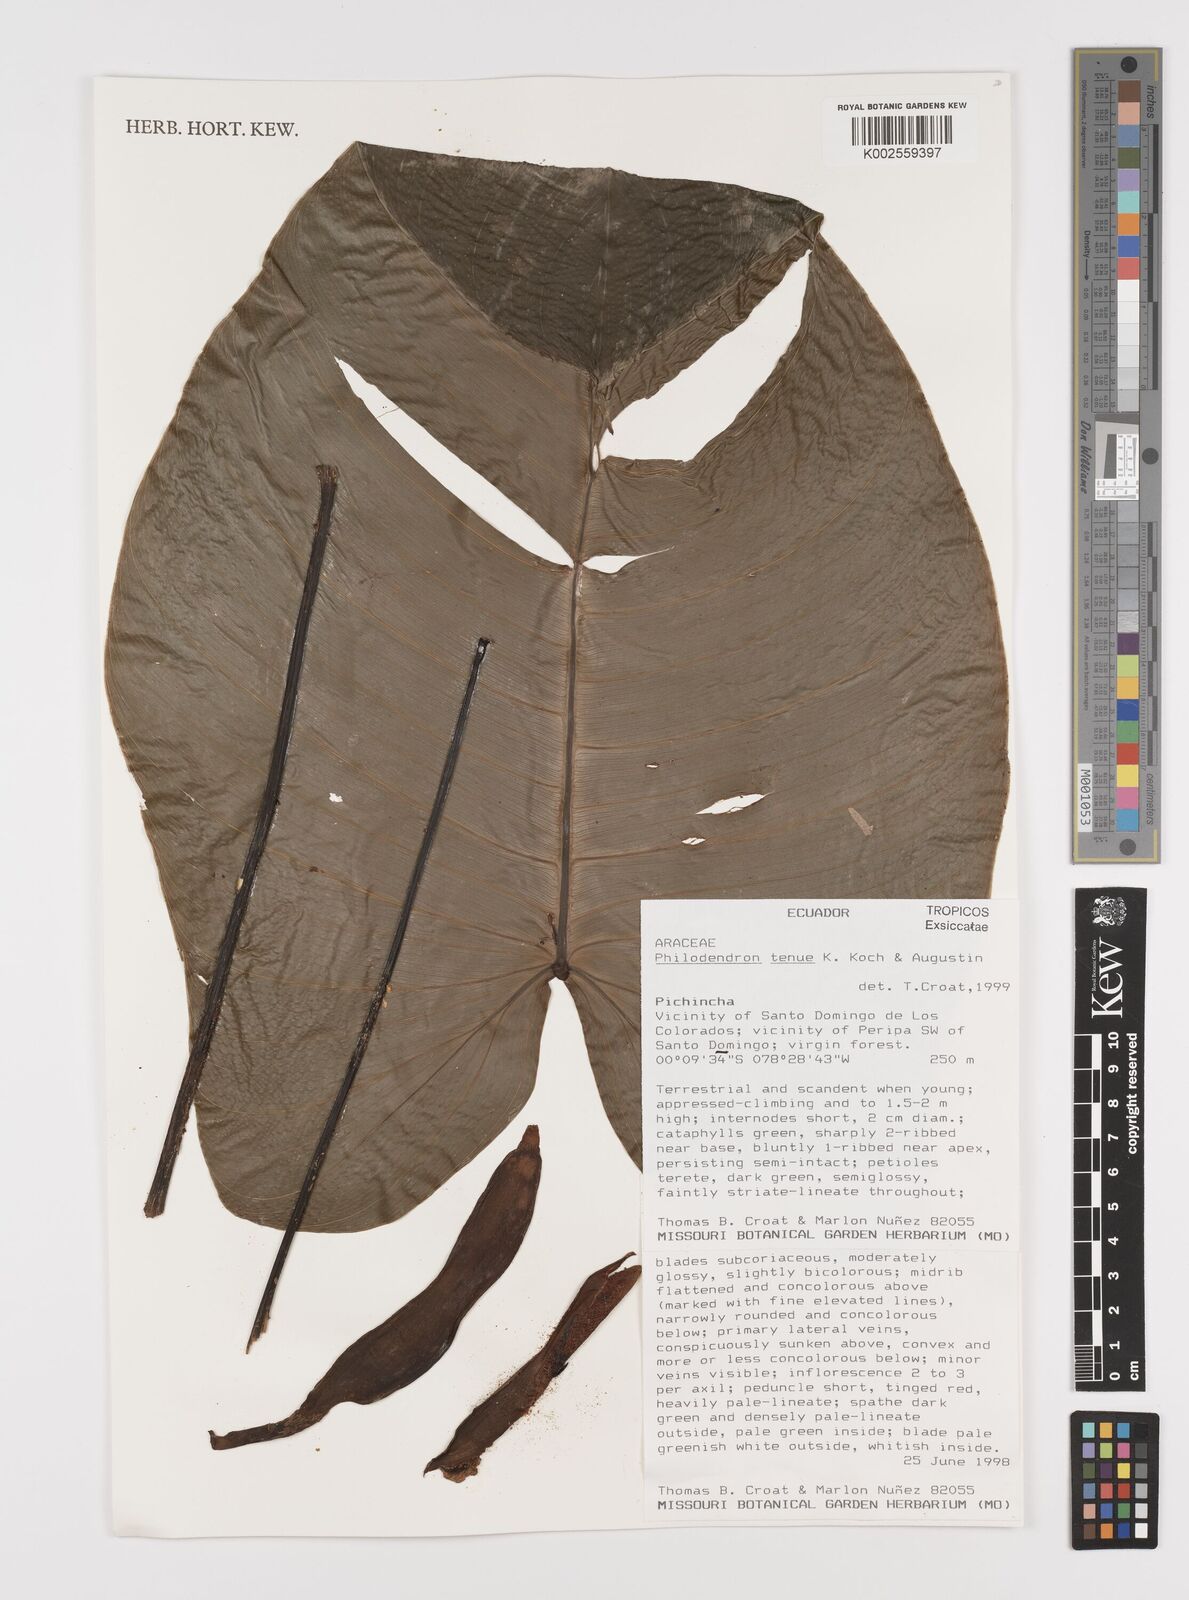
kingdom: Plantae
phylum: Tracheophyta
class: Liliopsida
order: Alismatales
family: Araceae
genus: Philodendron
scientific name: Philodendron tenue
